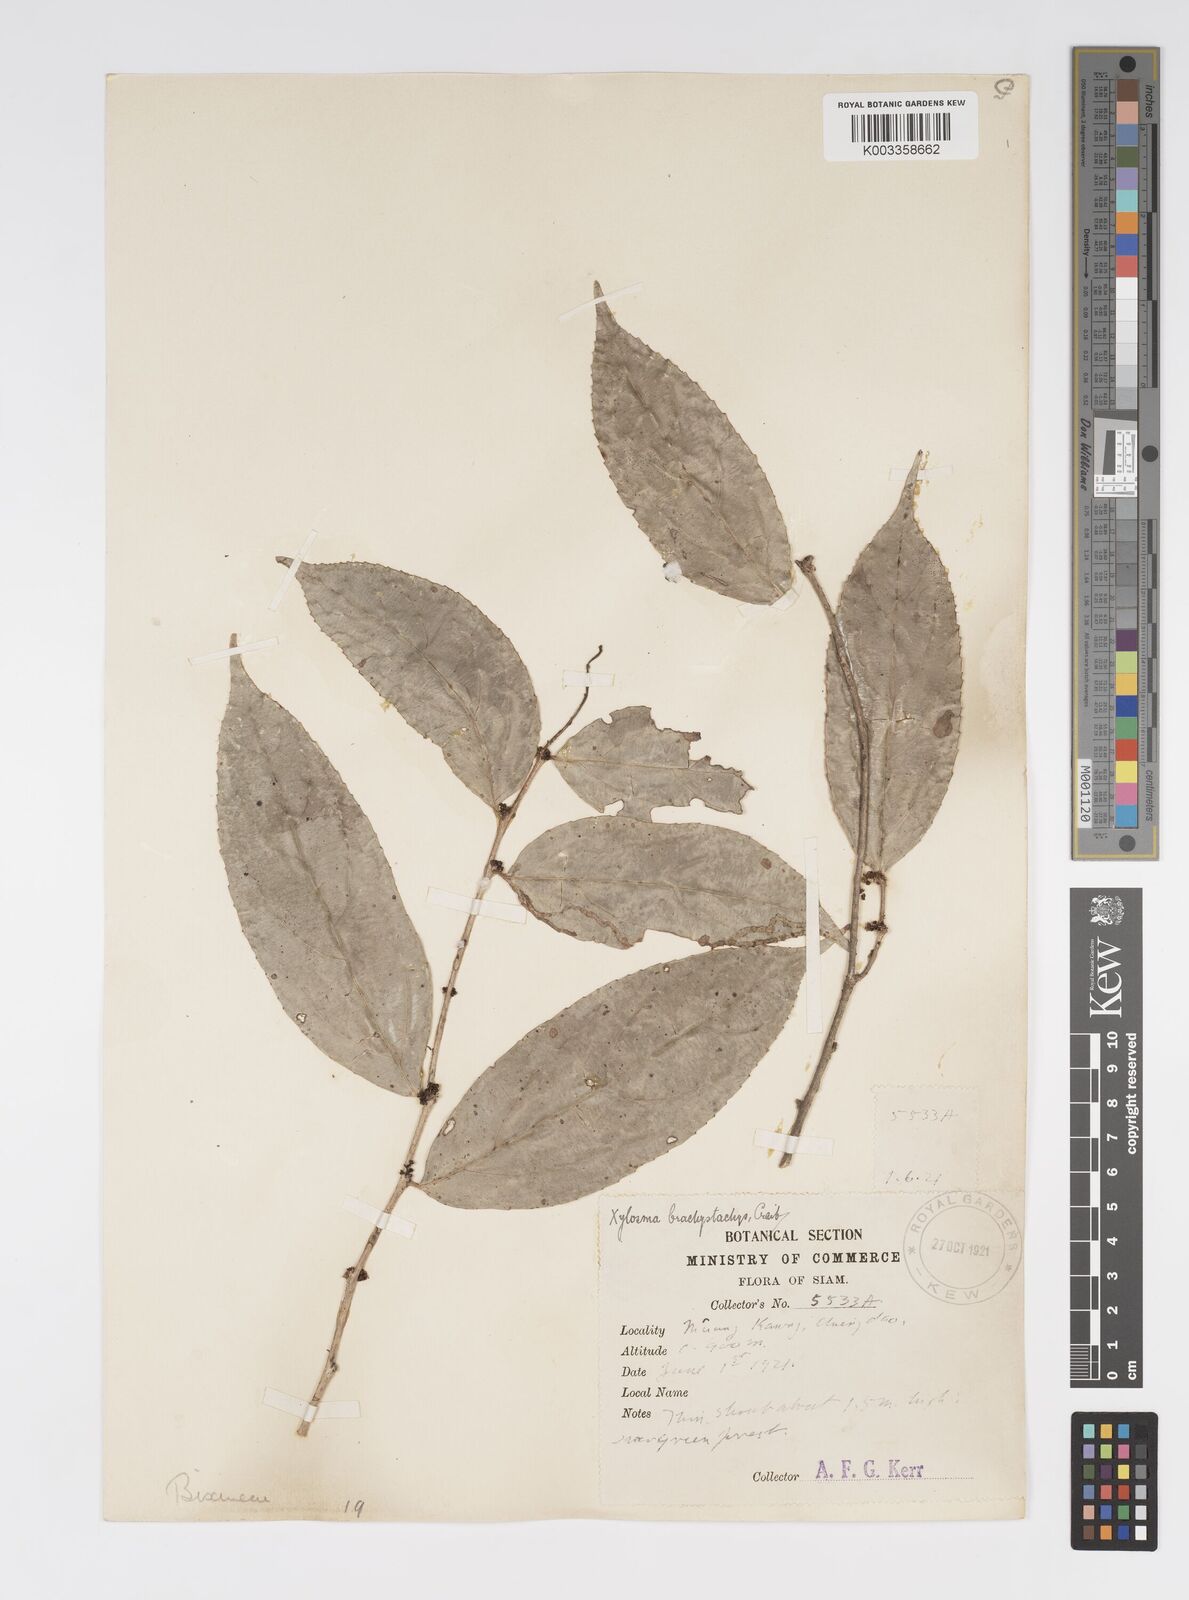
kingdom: Plantae
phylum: Tracheophyta
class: Magnoliopsida
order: Malpighiales
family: Salicaceae
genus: Xylosma
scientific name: Xylosma brachystachys
